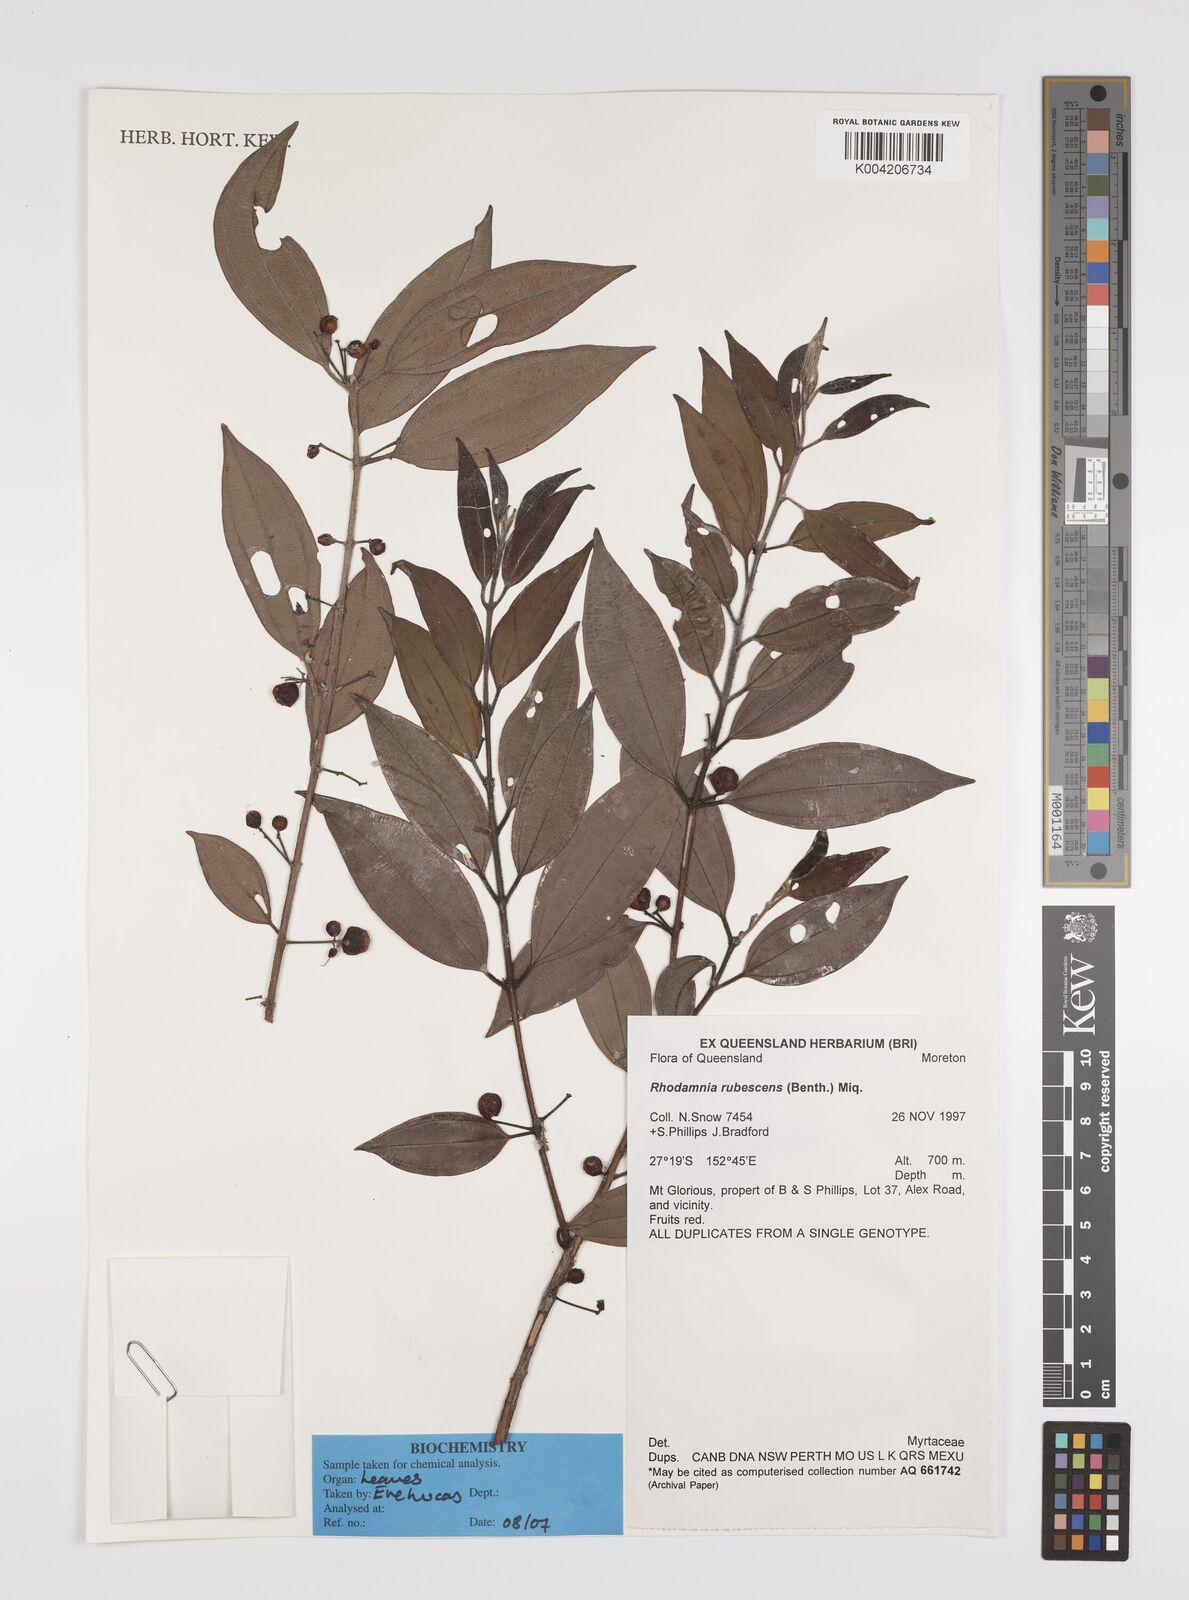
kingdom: Plantae
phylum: Tracheophyta
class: Magnoliopsida
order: Myrtales
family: Myrtaceae
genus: Rhodamnia
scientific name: Rhodamnia rubescens
